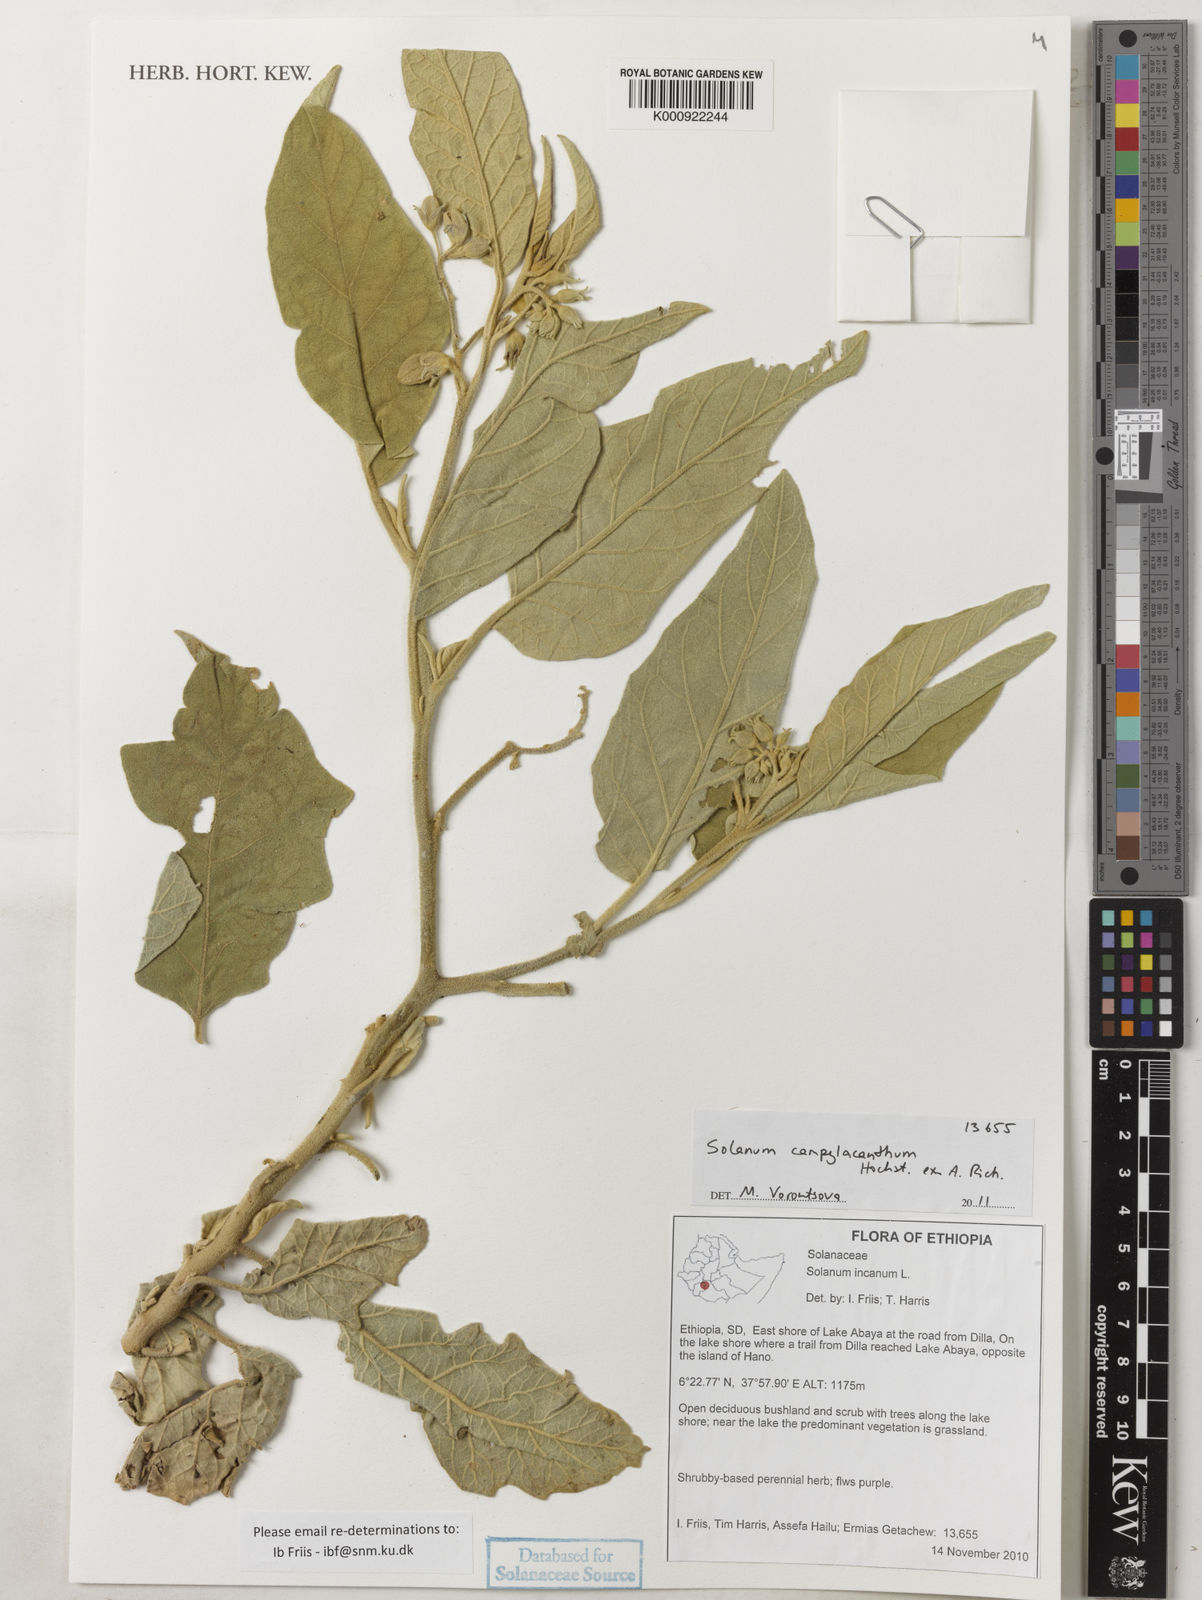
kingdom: Plantae
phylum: Tracheophyta
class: Magnoliopsida
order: Solanales
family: Solanaceae
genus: Solanum
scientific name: Solanum campylacanthum
